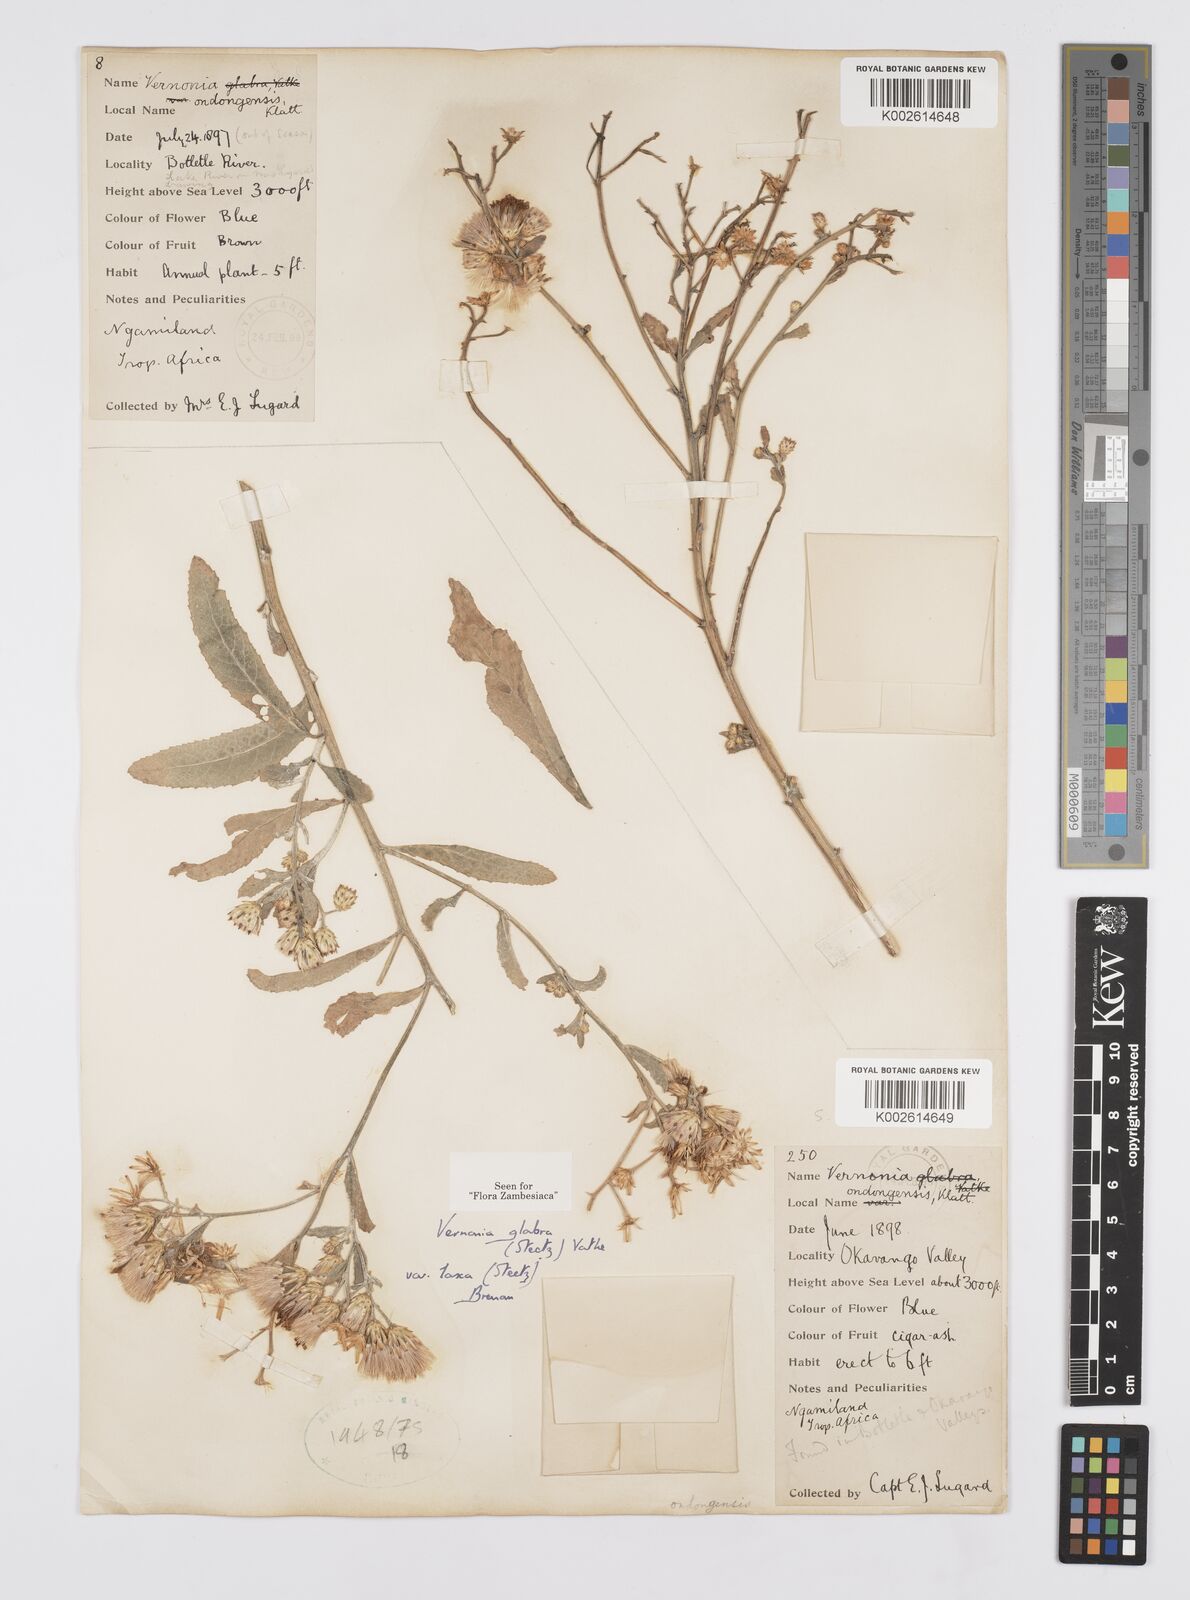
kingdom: Plantae
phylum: Tracheophyta
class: Magnoliopsida
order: Asterales
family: Asteraceae
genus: Linzia
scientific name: Linzia glabra
